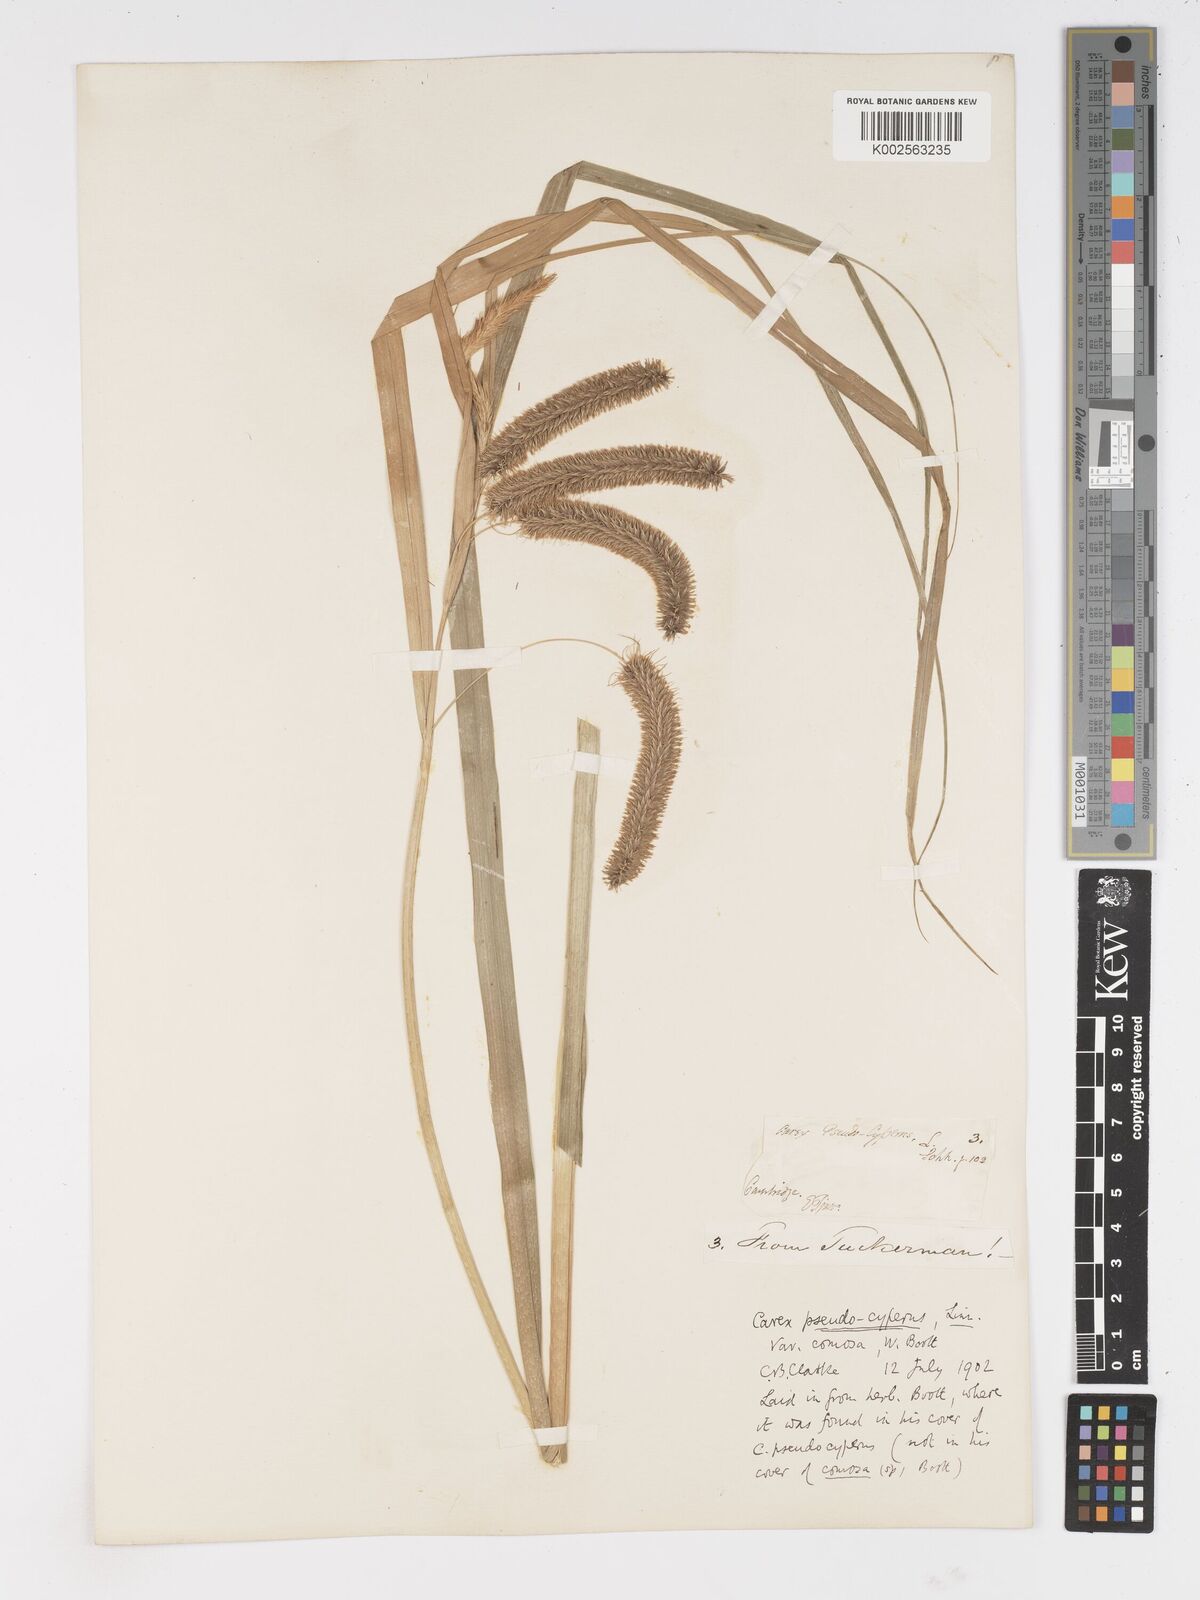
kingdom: Plantae
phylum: Tracheophyta
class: Liliopsida
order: Poales
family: Cyperaceae
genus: Carex
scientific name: Carex comosa
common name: Bristly sedge
